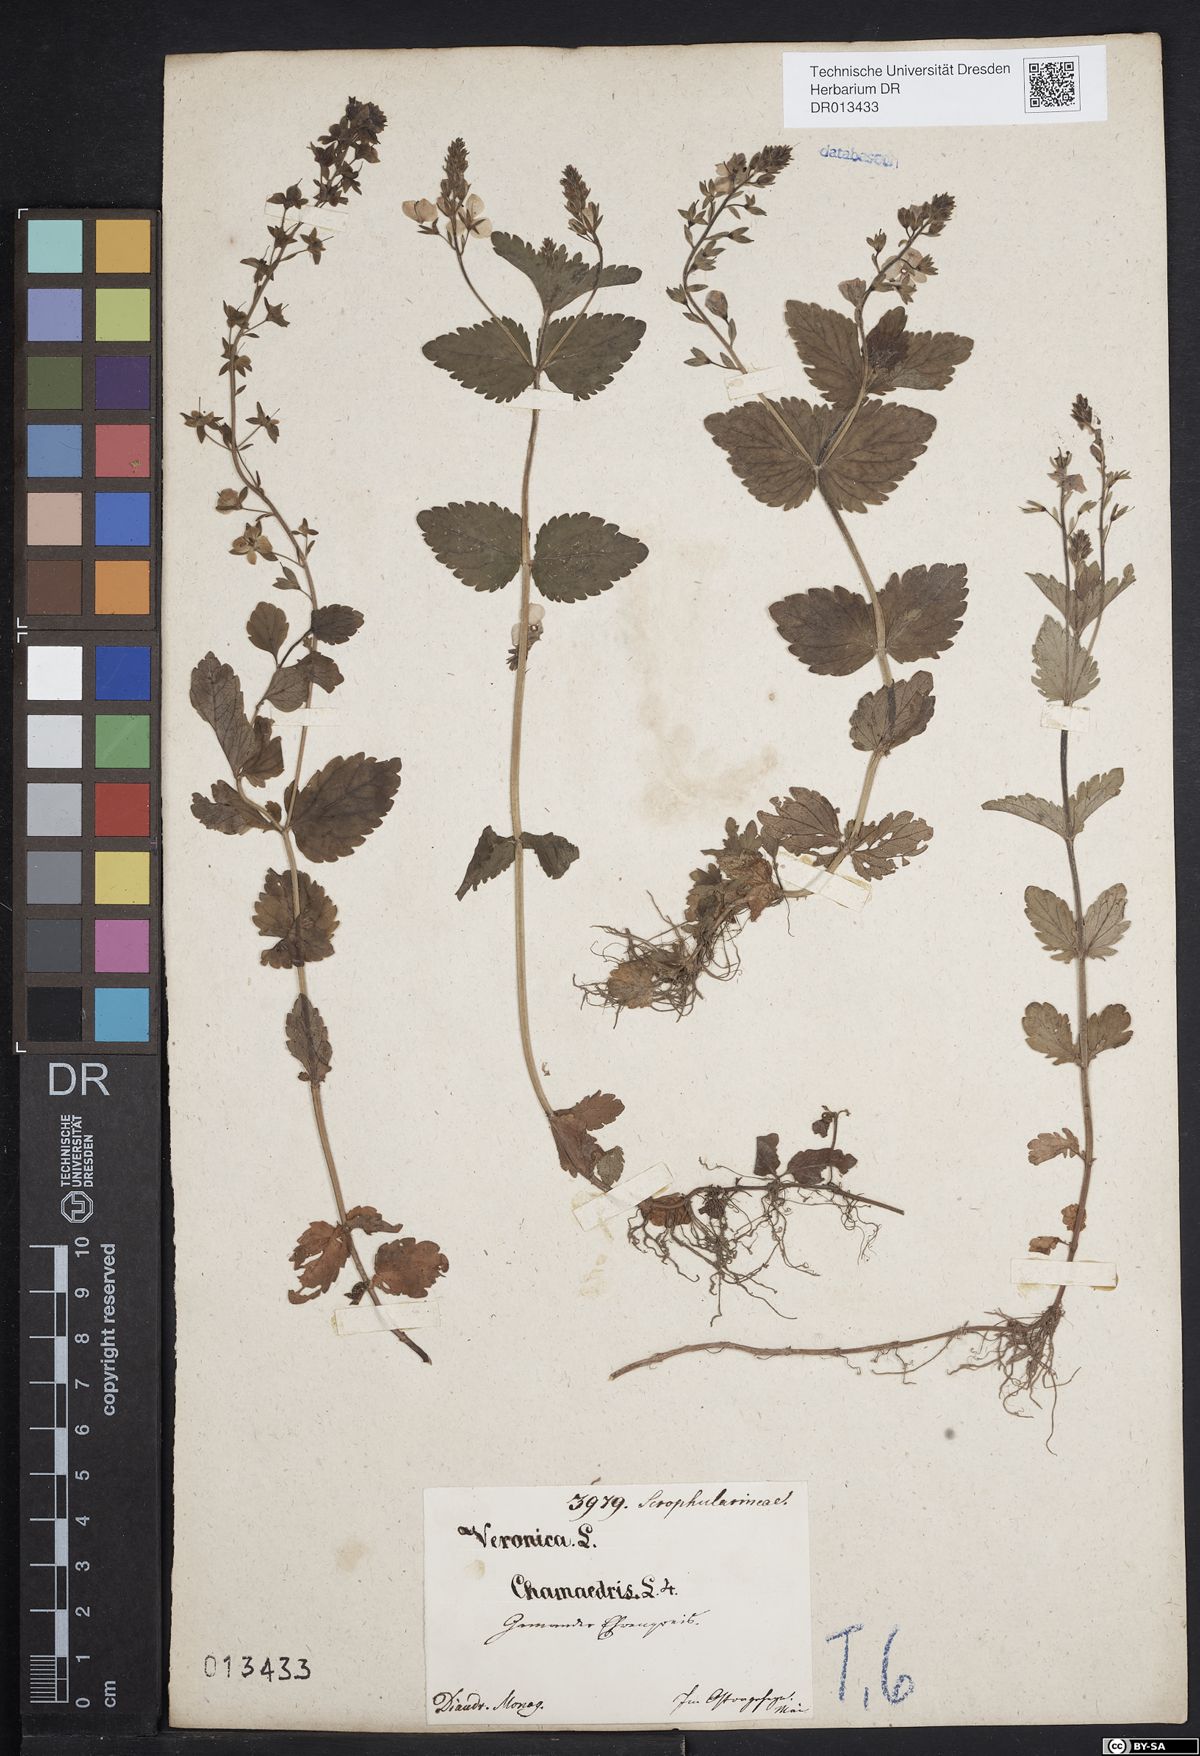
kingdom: Plantae
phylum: Tracheophyta
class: Magnoliopsida
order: Lamiales
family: Plantaginaceae
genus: Veronica
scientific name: Veronica chamaedrys
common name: Germander speedwell
